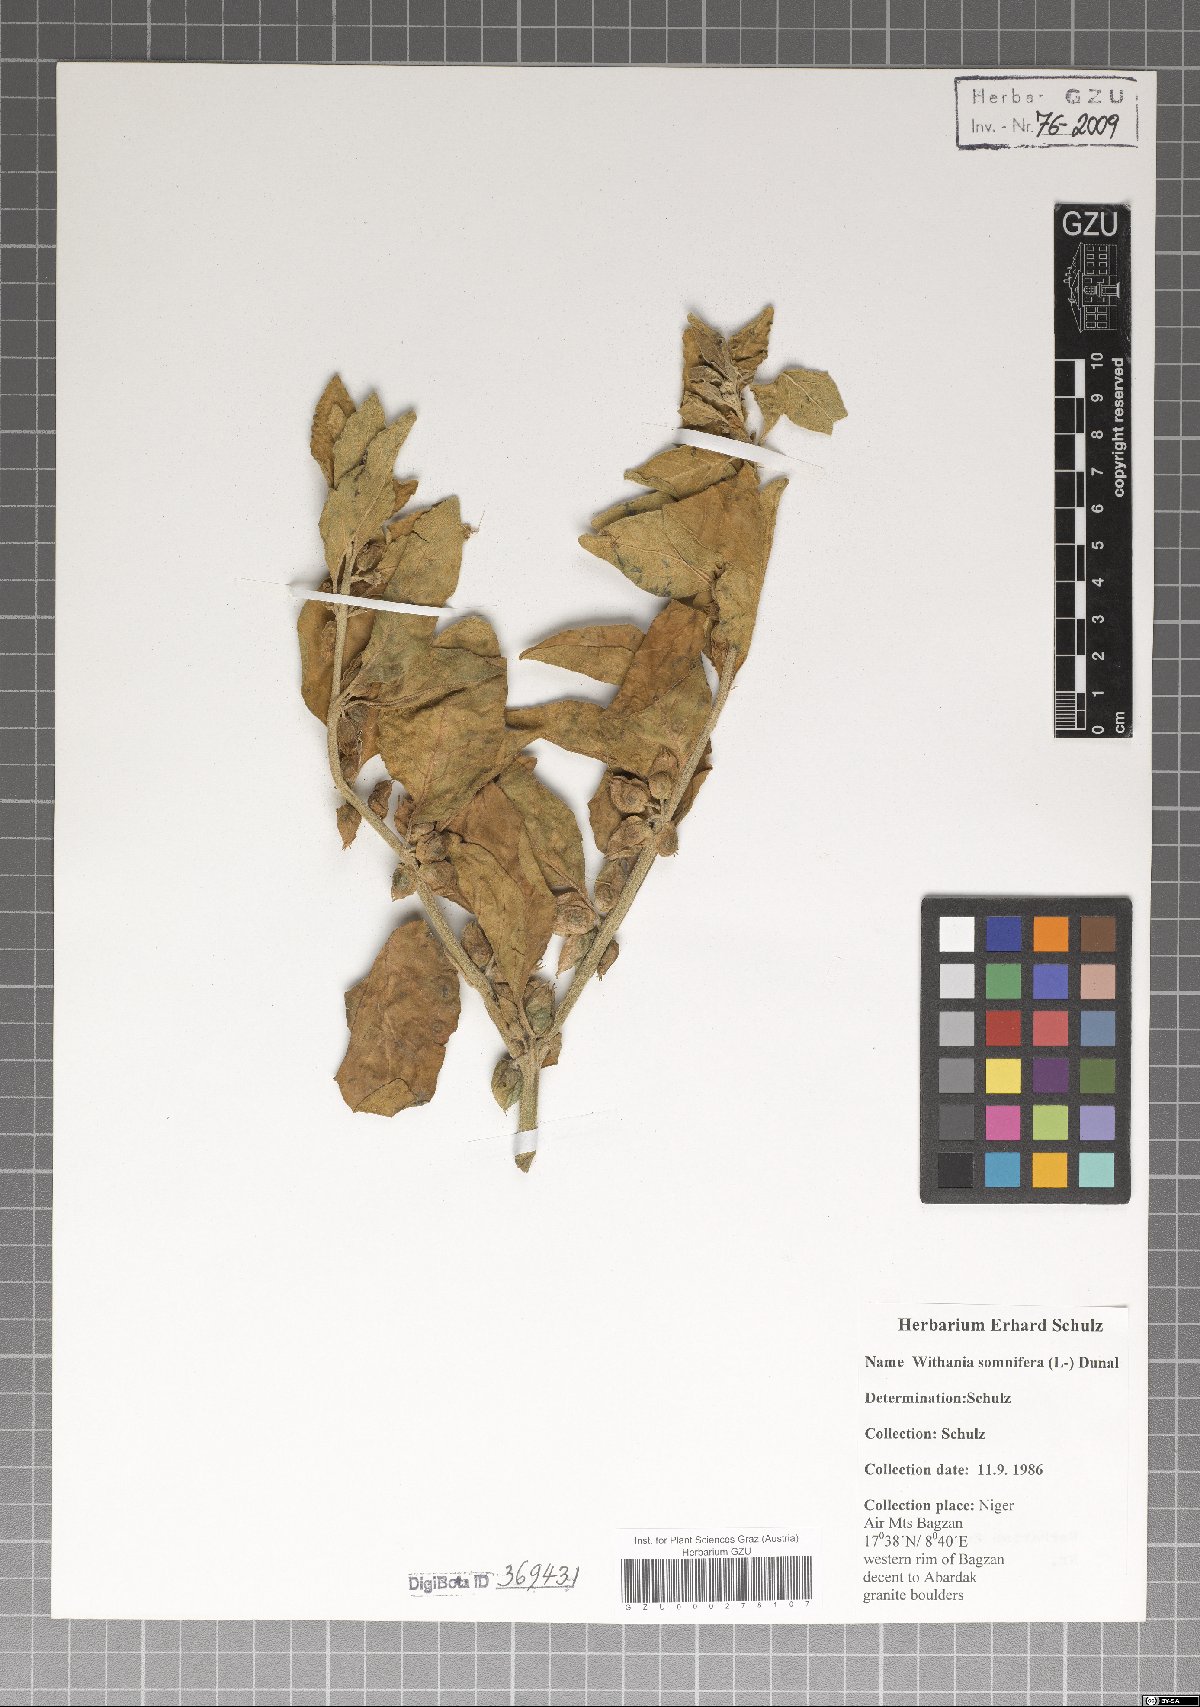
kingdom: Plantae
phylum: Tracheophyta
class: Magnoliopsida
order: Solanales
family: Solanaceae
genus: Withania
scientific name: Withania somnifera
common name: Winter-cherry
